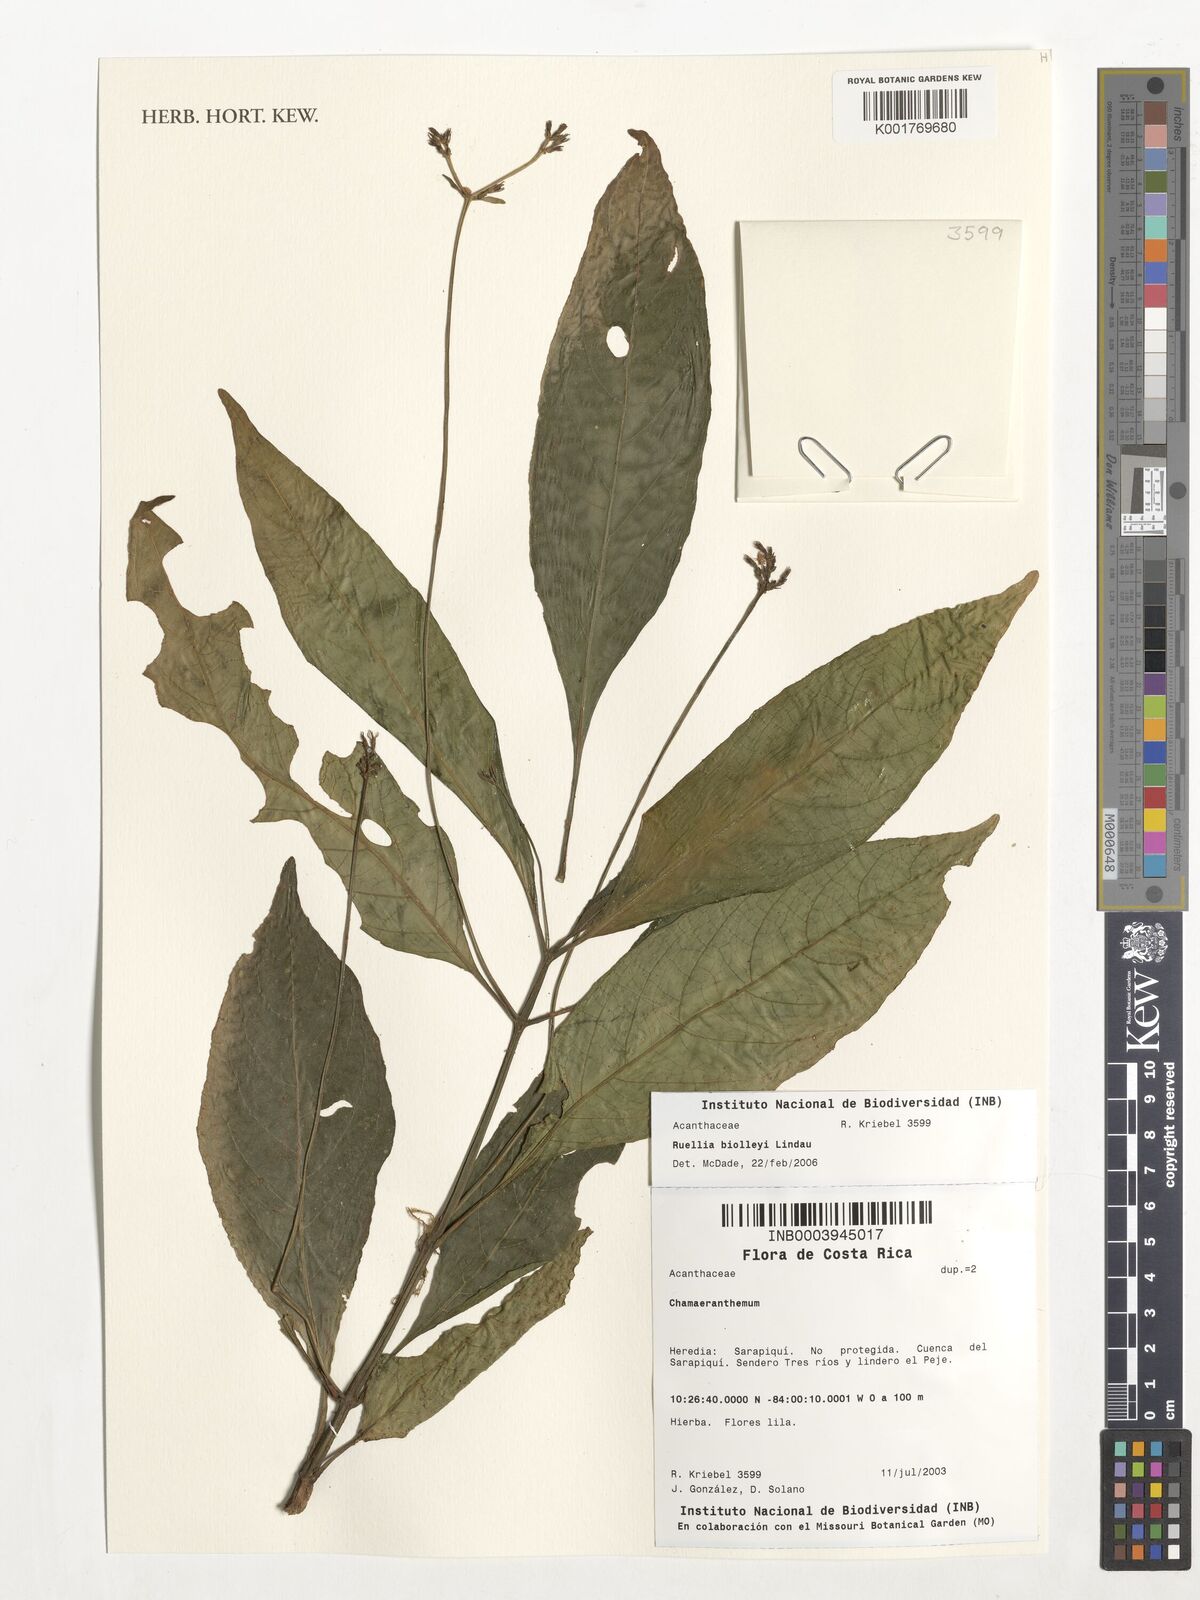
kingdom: Plantae
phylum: Tracheophyta
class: Magnoliopsida
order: Lamiales
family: Acanthaceae
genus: Ruellia
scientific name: Ruellia biolleyi
